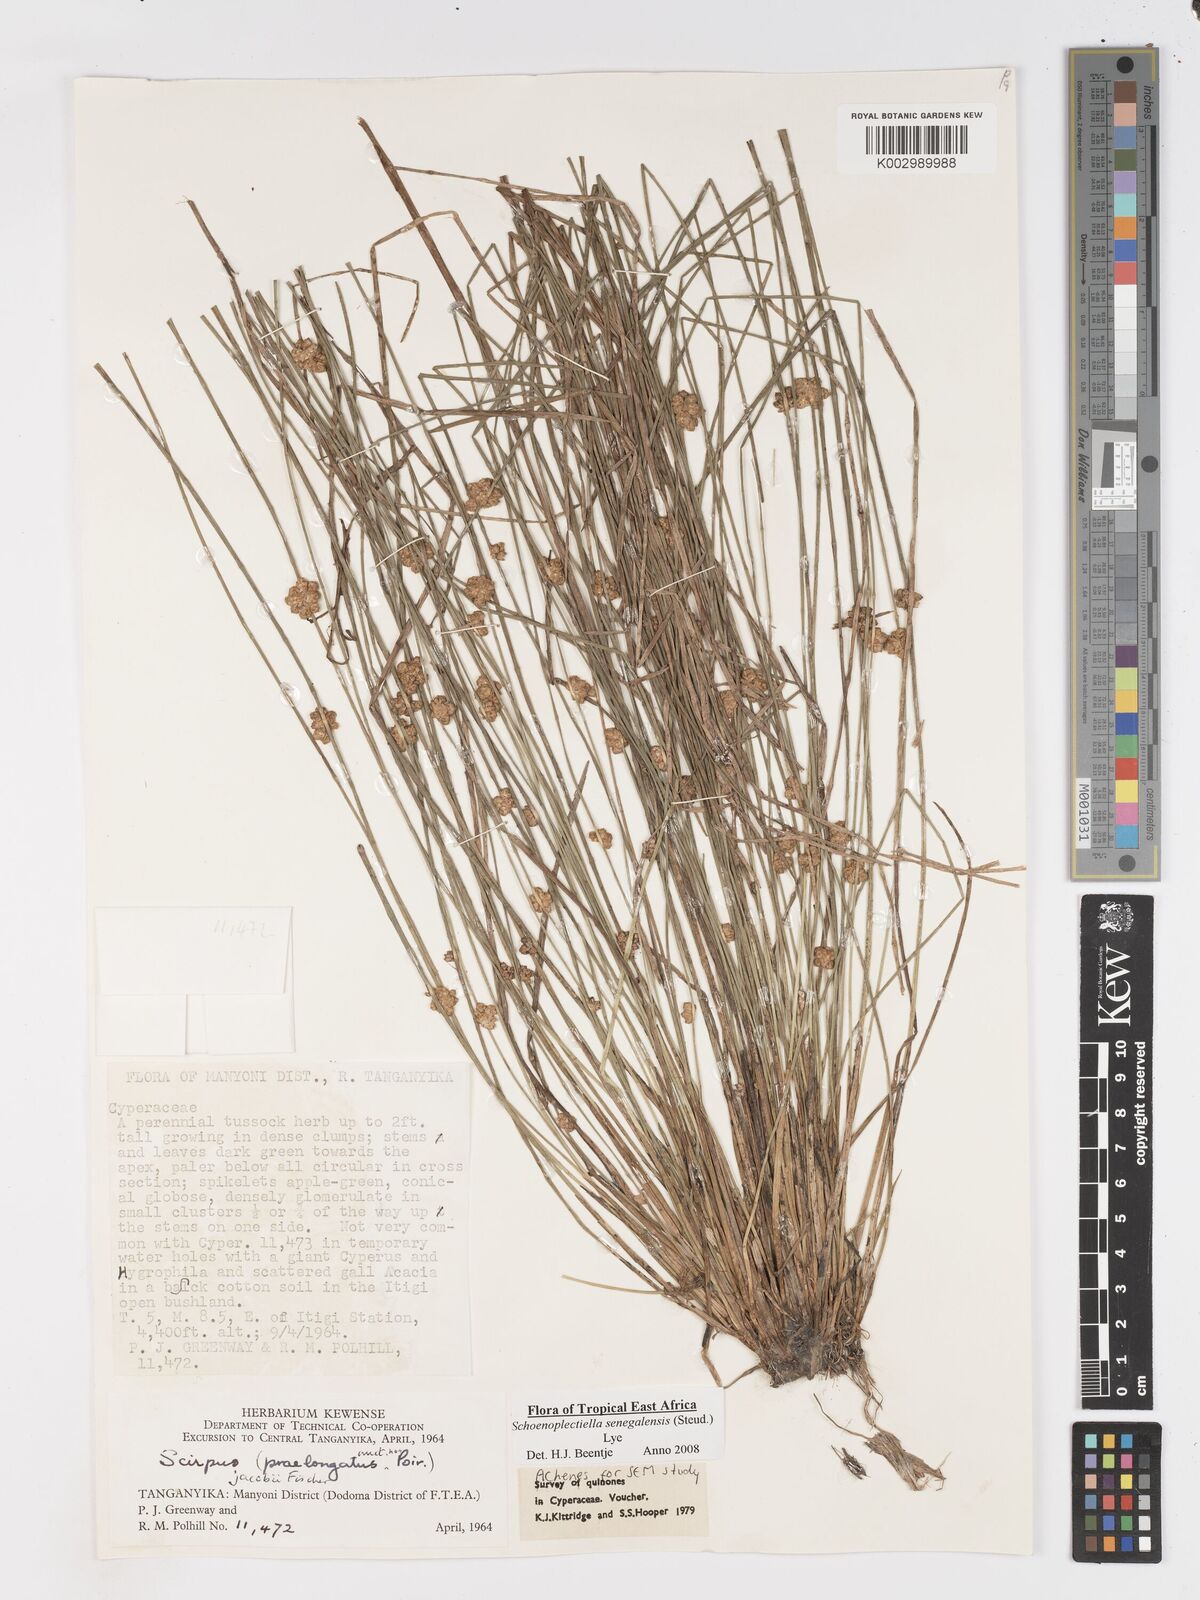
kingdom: Plantae
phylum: Tracheophyta
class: Liliopsida
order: Poales
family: Cyperaceae
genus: Schoenoplectiella
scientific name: Schoenoplectiella senegalensis
